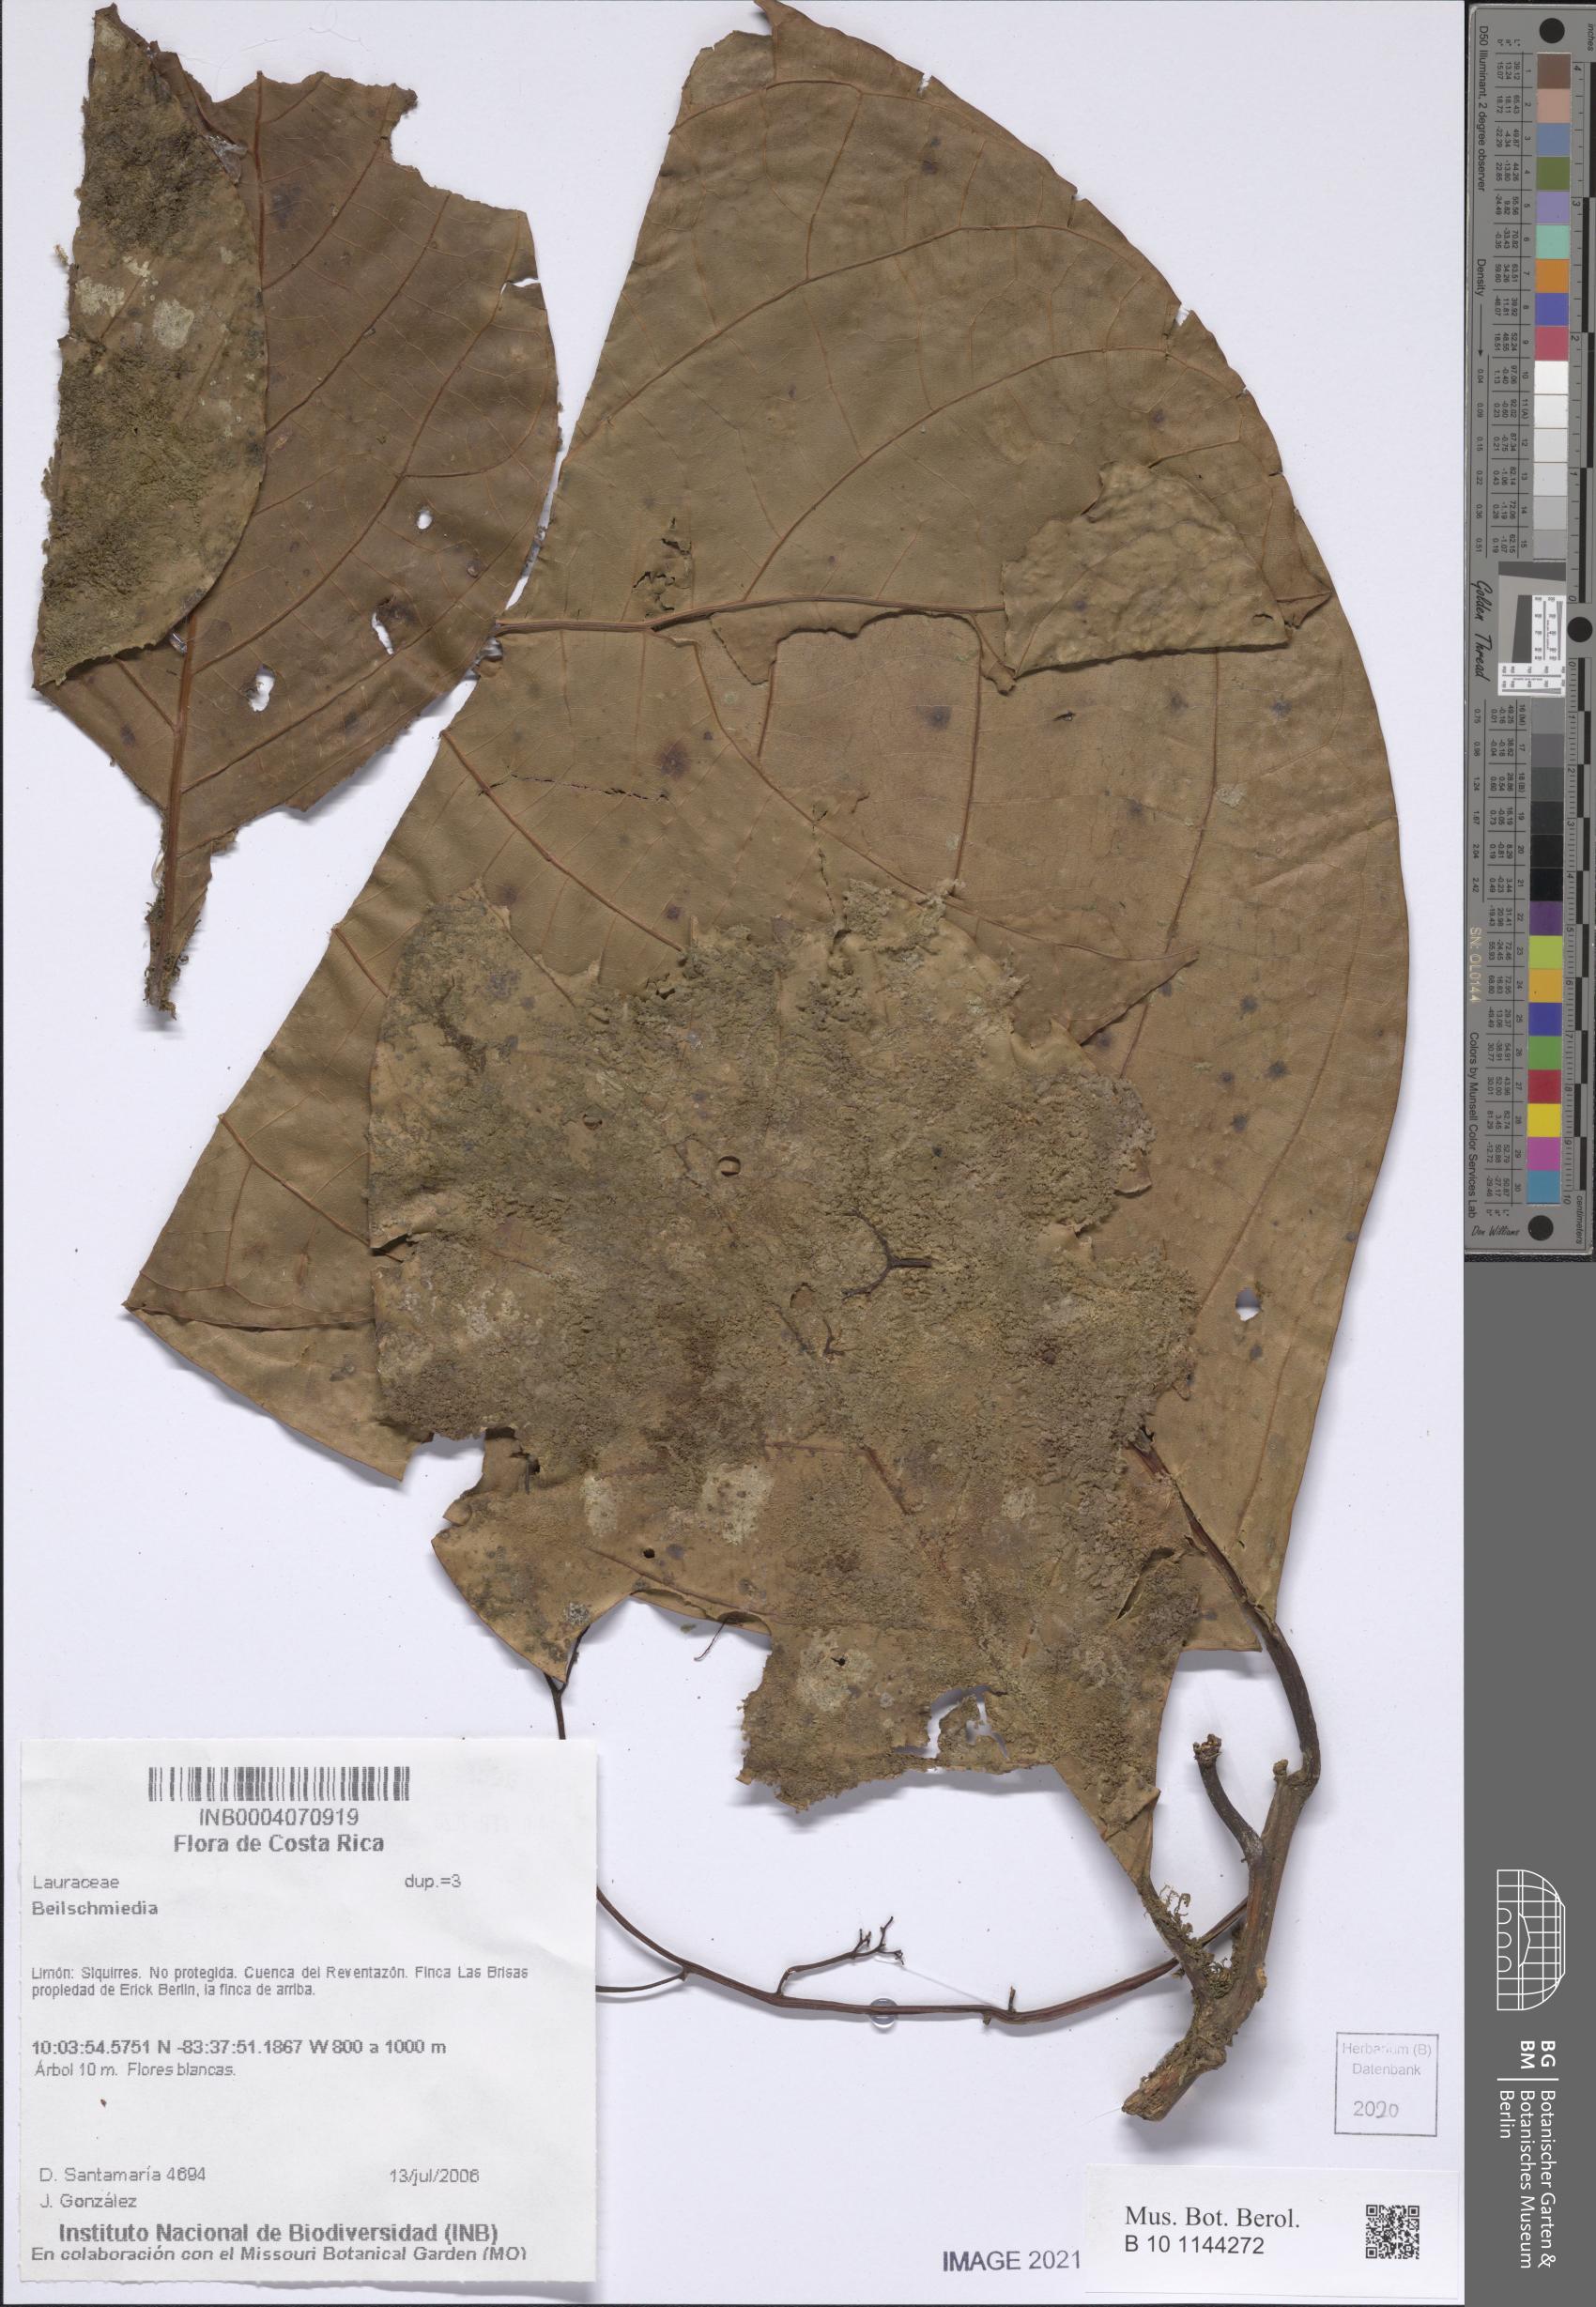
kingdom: Plantae
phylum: Tracheophyta
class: Magnoliopsida
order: Laurales
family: Lauraceae
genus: Beilschmiedia
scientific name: Beilschmiedia
